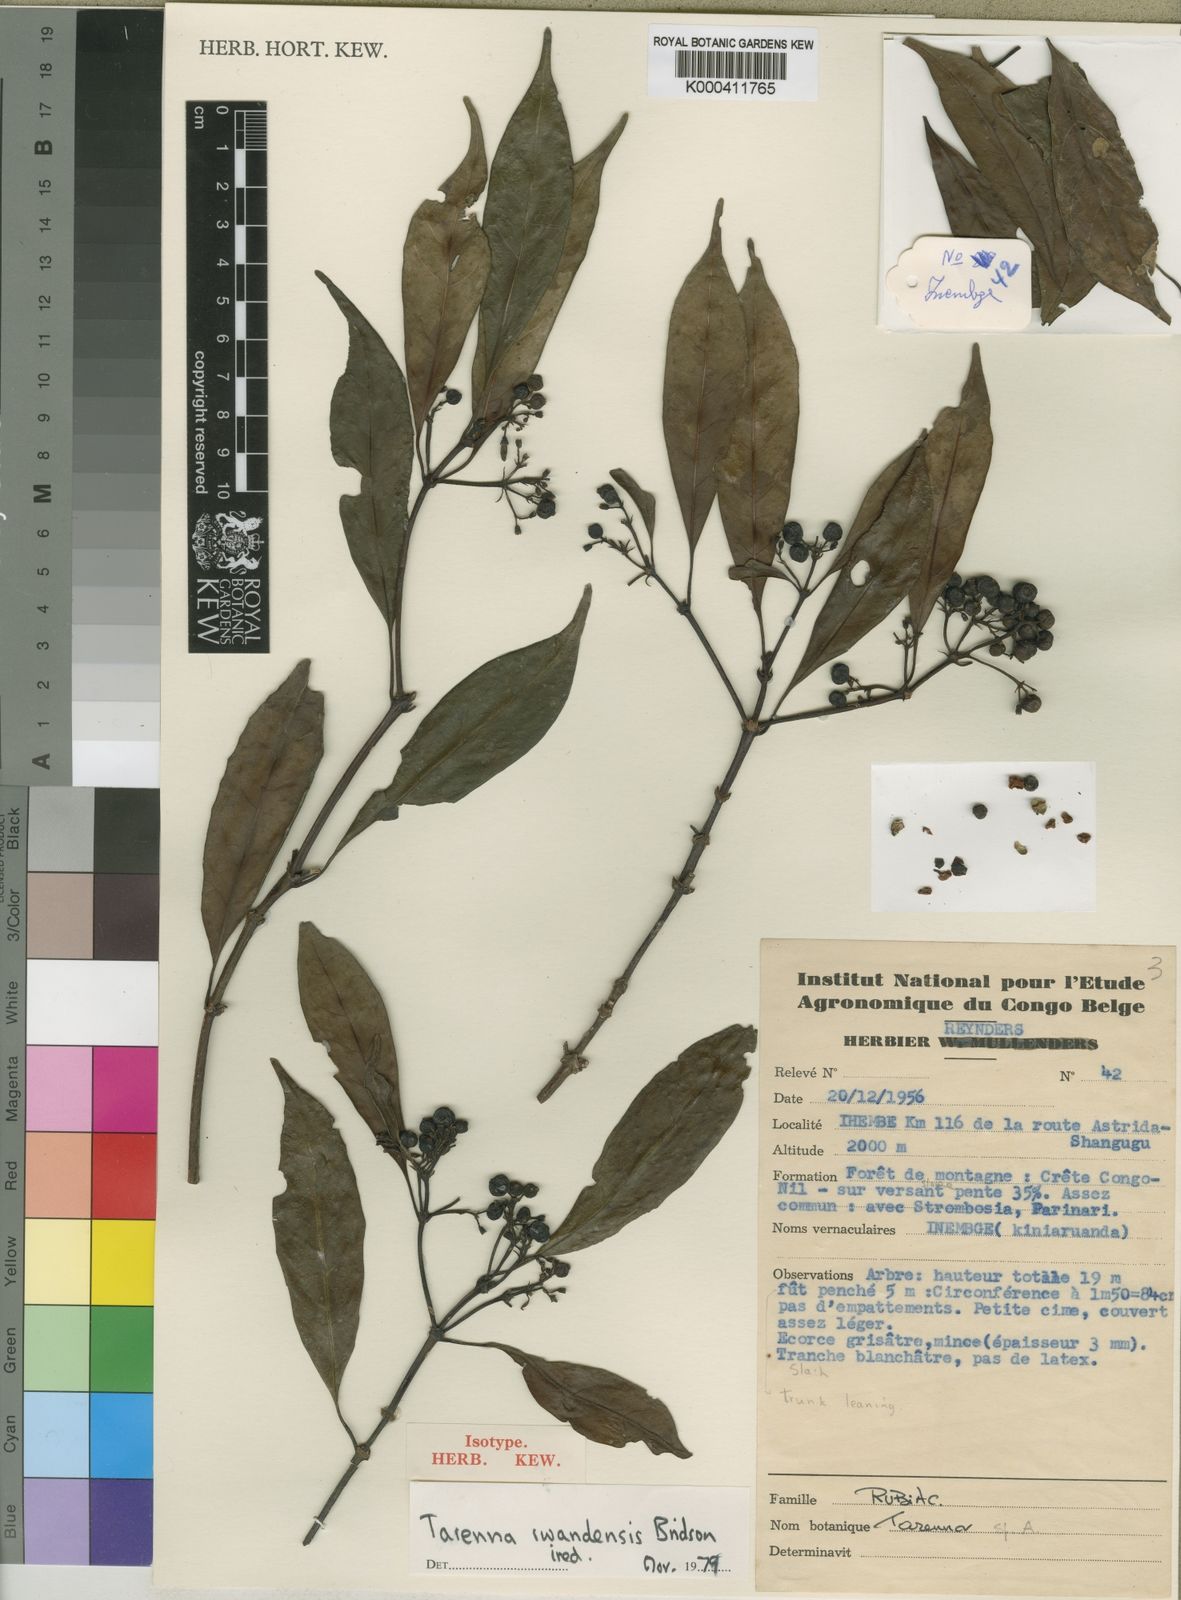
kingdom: Plantae
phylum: Tracheophyta
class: Magnoliopsida
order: Gentianales
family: Rubiaceae
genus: Tarenna
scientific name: Tarenna rwandensis
